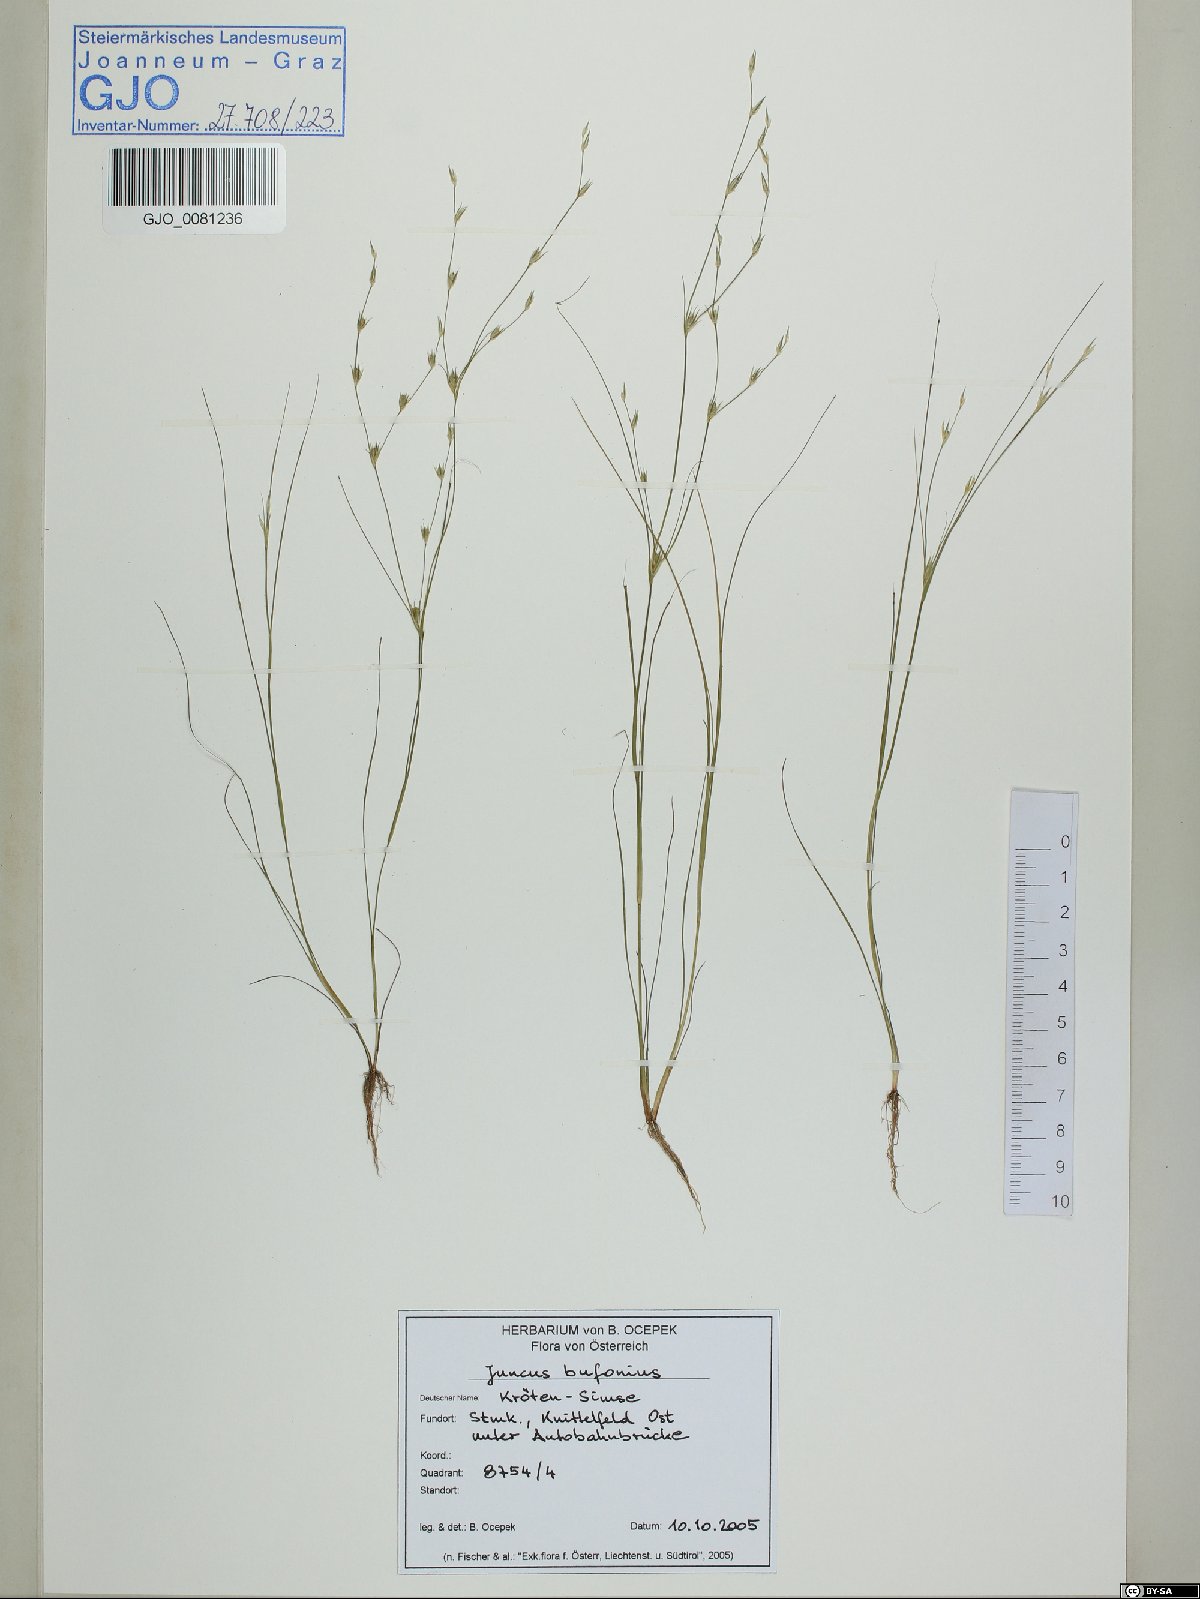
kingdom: Plantae
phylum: Tracheophyta
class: Liliopsida
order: Poales
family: Juncaceae
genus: Juncus
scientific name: Juncus bufonius
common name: Toad rush
